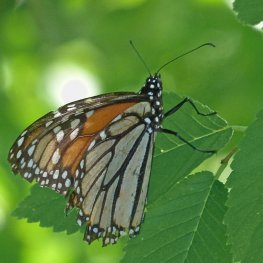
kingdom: Animalia
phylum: Arthropoda
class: Insecta
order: Lepidoptera
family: Nymphalidae
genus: Danaus
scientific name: Danaus plexippus
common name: Monarch
